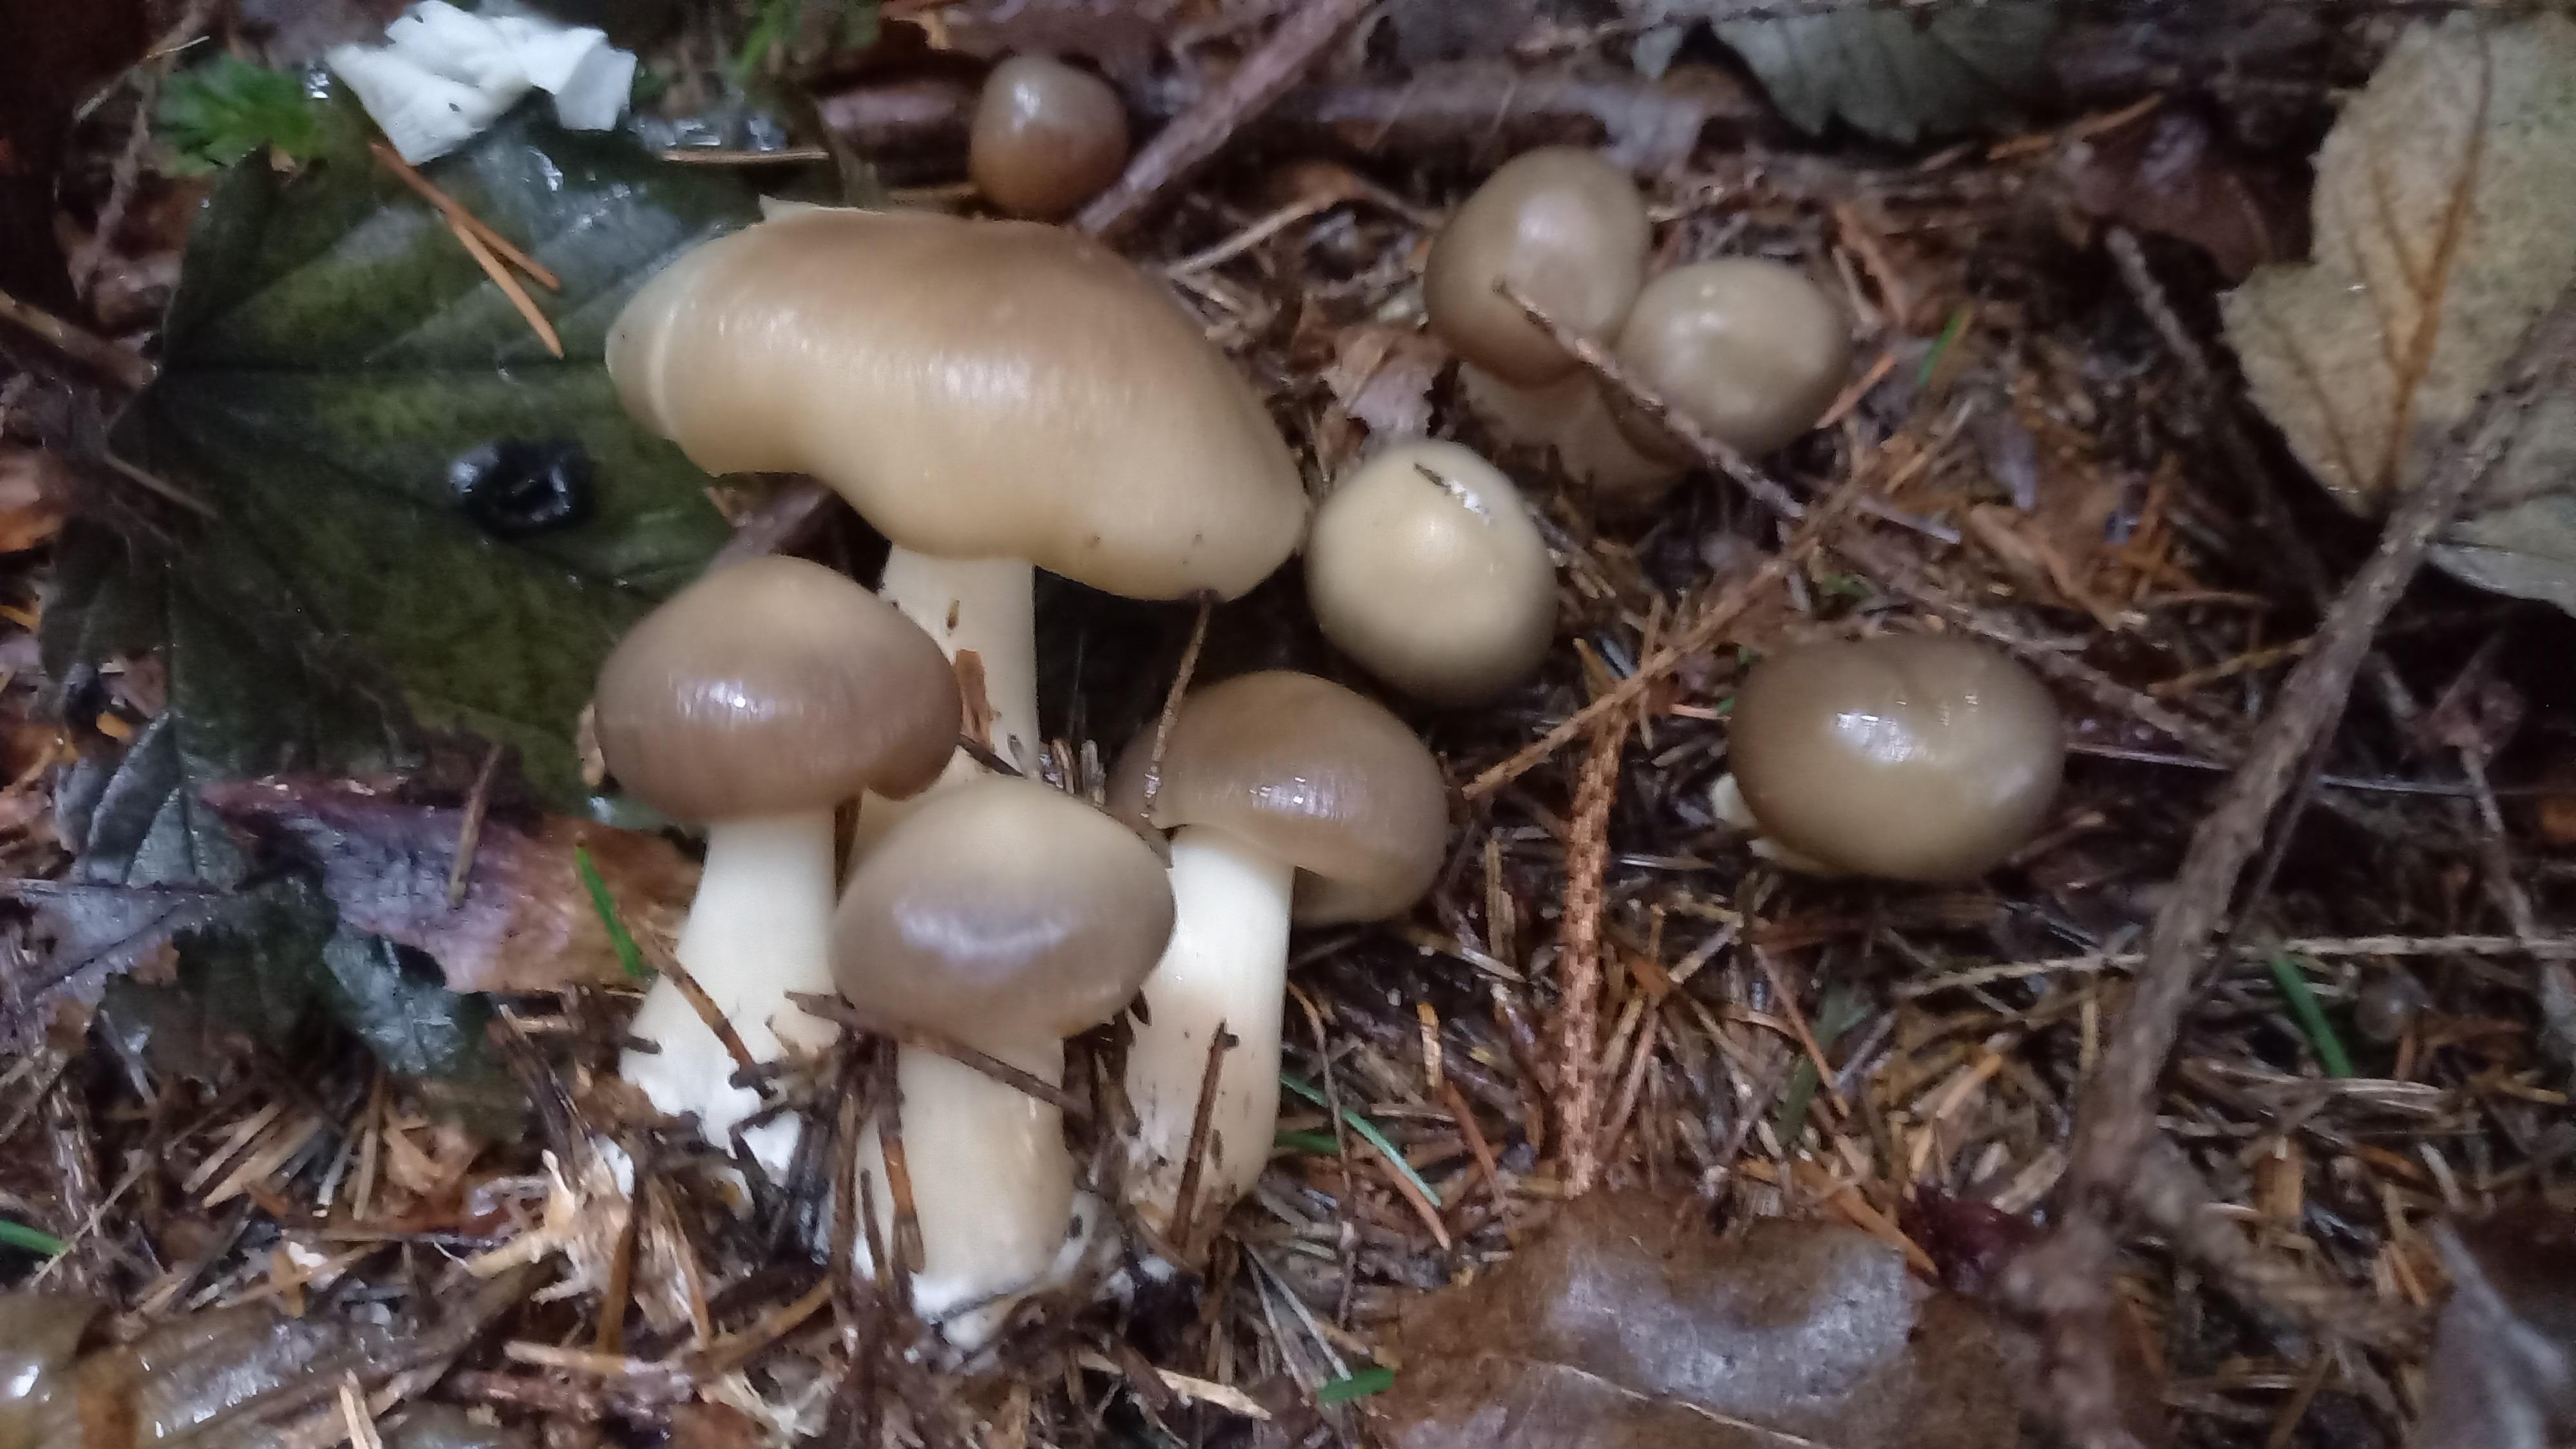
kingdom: Fungi
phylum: Basidiomycota
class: Agaricomycetes
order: Agaricales
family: Omphalotaceae
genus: Rhodocollybia
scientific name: Rhodocollybia asema
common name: horngrå fladhat
